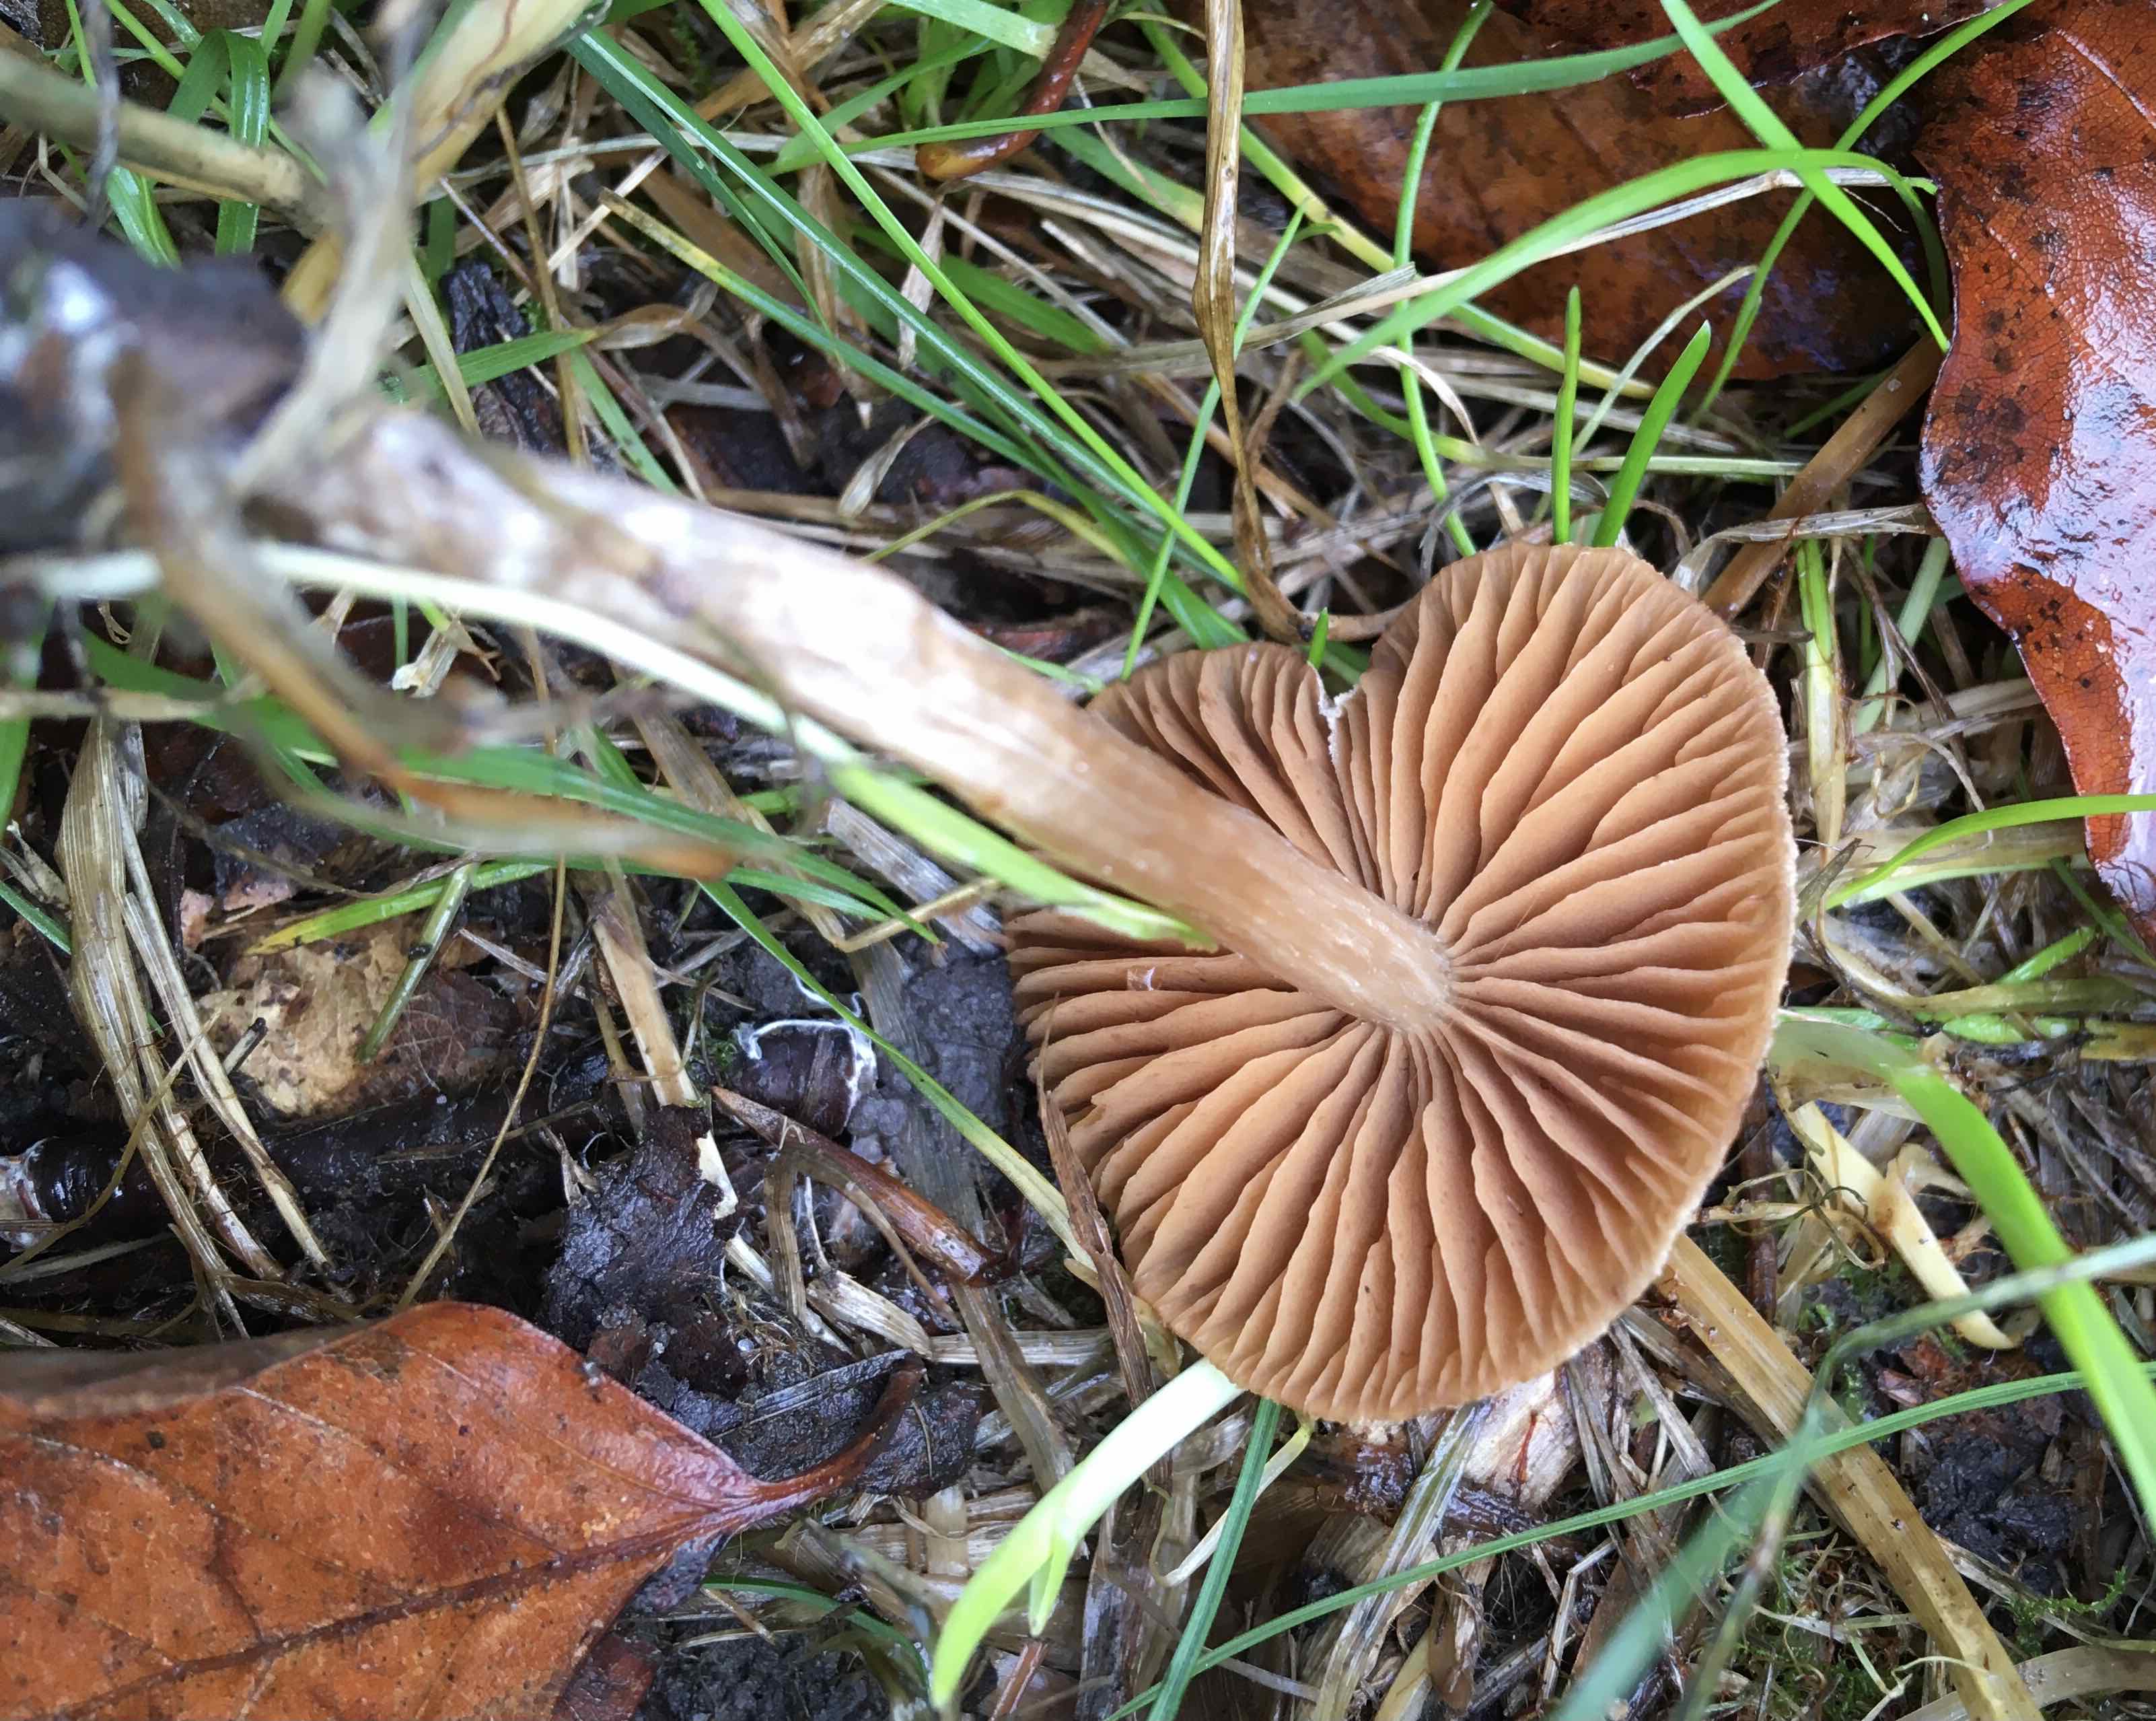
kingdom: Fungi
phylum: Basidiomycota
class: Agaricomycetes
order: Agaricales
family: Cortinariaceae
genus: Cortinarius
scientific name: Cortinarius
